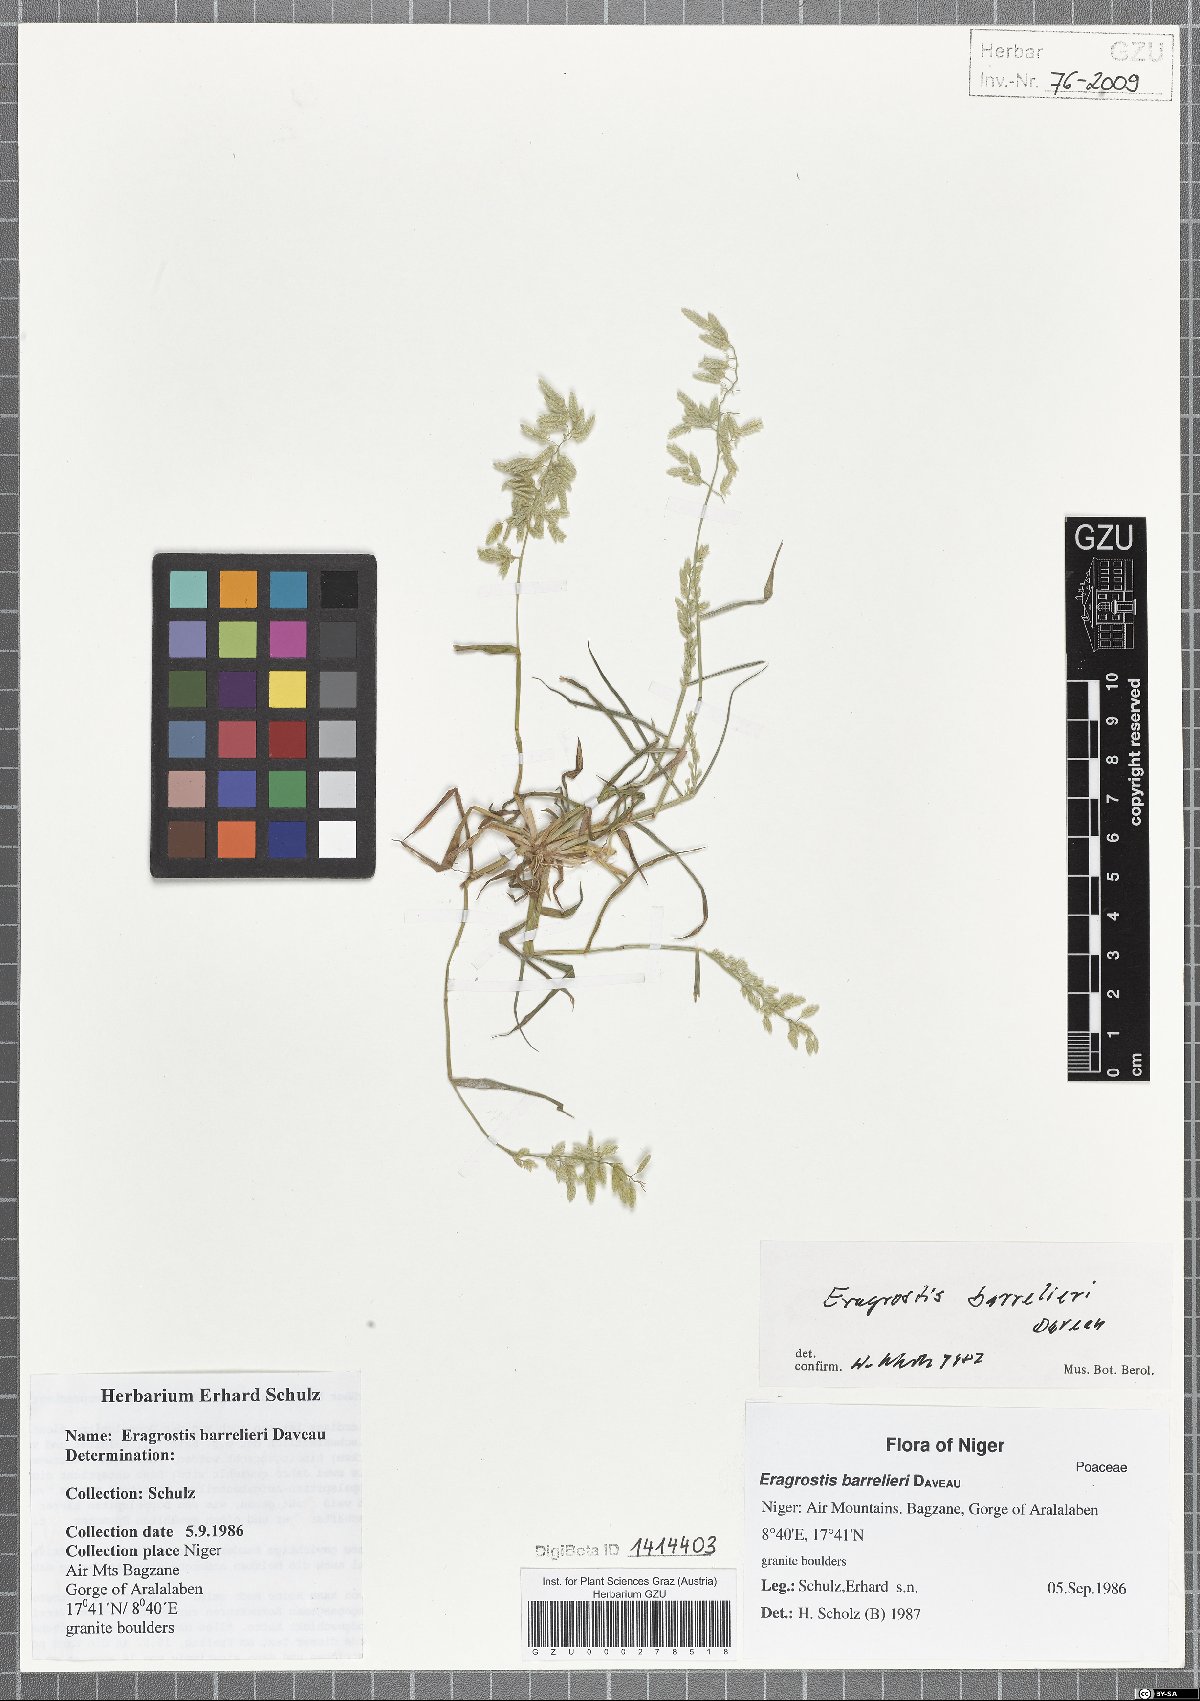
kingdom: Plantae
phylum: Tracheophyta
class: Liliopsida
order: Poales
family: Poaceae
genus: Eragrostis
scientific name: Eragrostis barrelieri
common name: Mediterranean lovegrass
